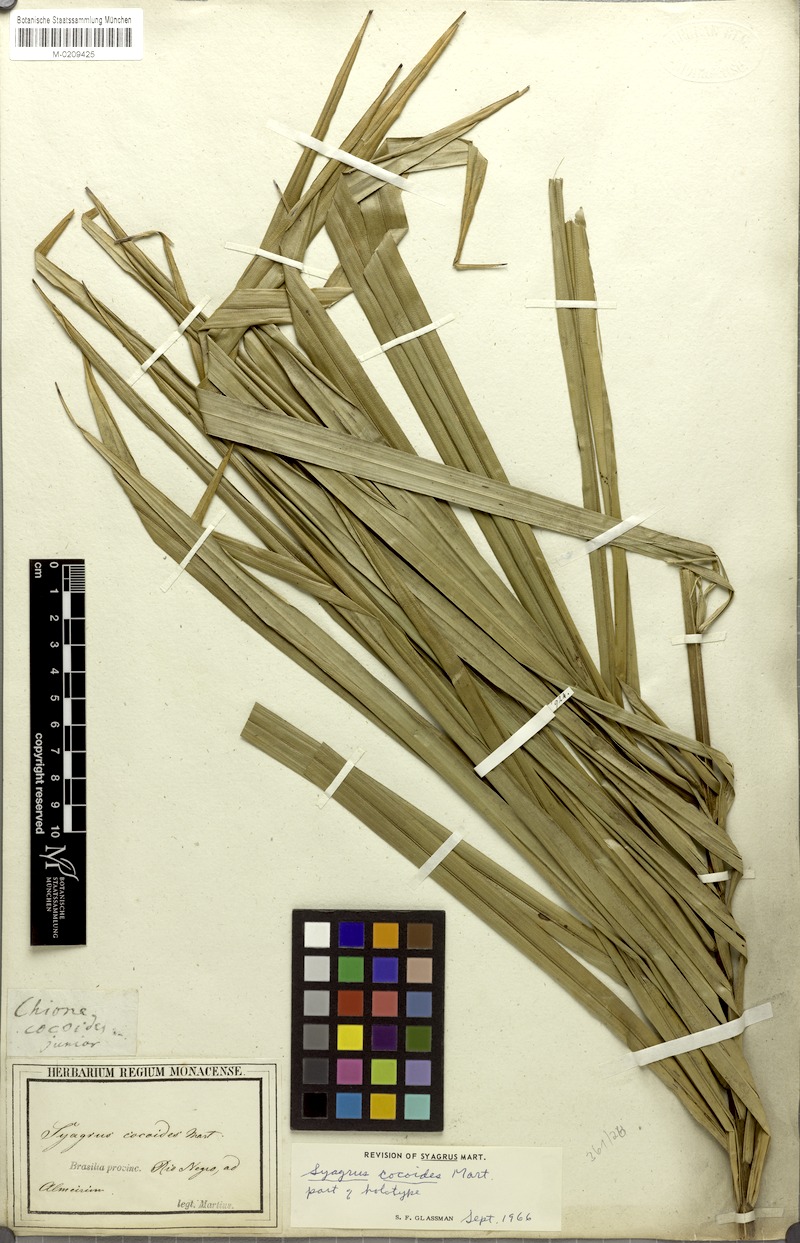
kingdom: Plantae
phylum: Tracheophyta
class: Liliopsida
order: Arecales
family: Arecaceae
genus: Syagrus
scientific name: Syagrus cocoides
